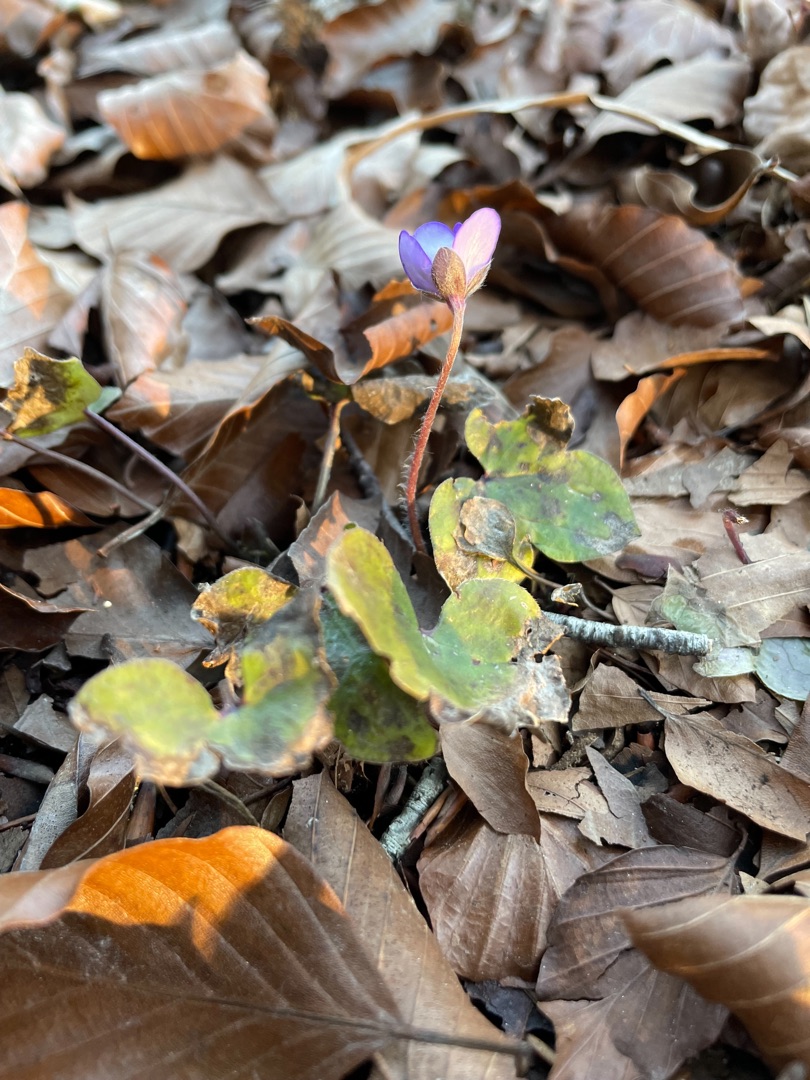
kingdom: Plantae
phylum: Tracheophyta
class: Magnoliopsida
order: Ranunculales
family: Ranunculaceae
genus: Hepatica
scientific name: Hepatica nobilis
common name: Blå anemone
